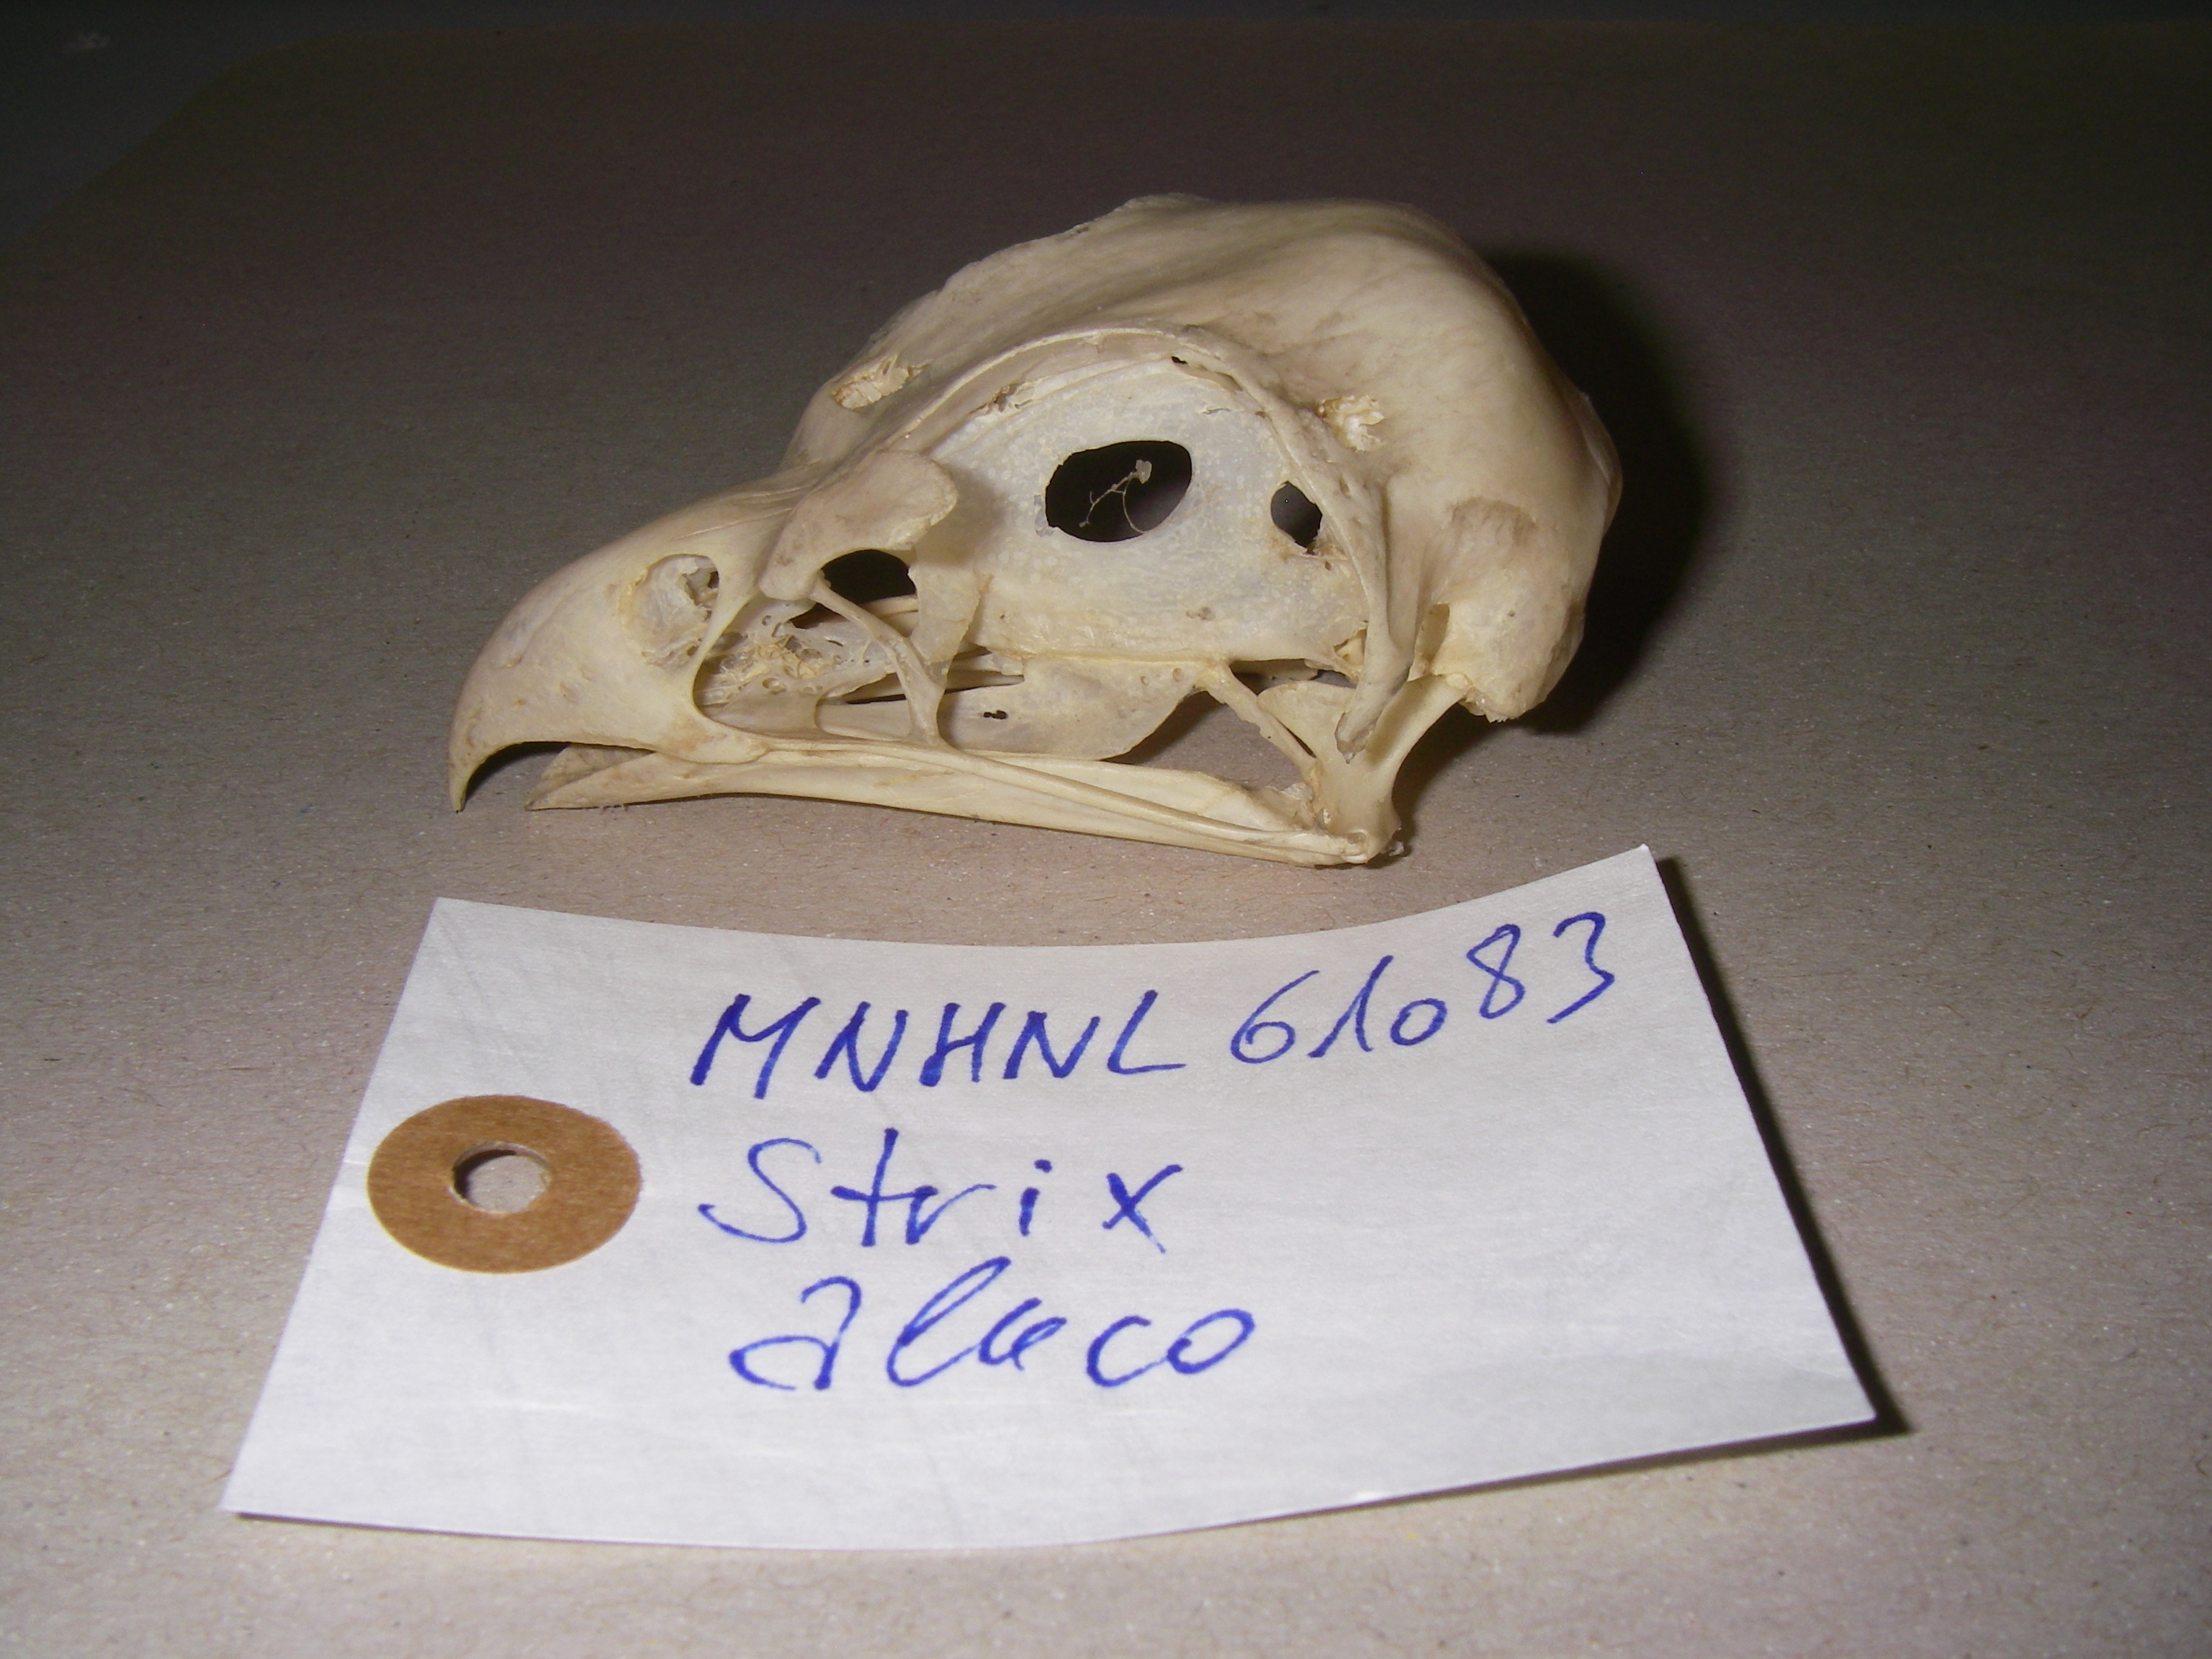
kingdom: Animalia
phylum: Chordata
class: Aves
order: Strigiformes
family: Strigidae
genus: Strix
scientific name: Strix aluco
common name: Tawny owl
